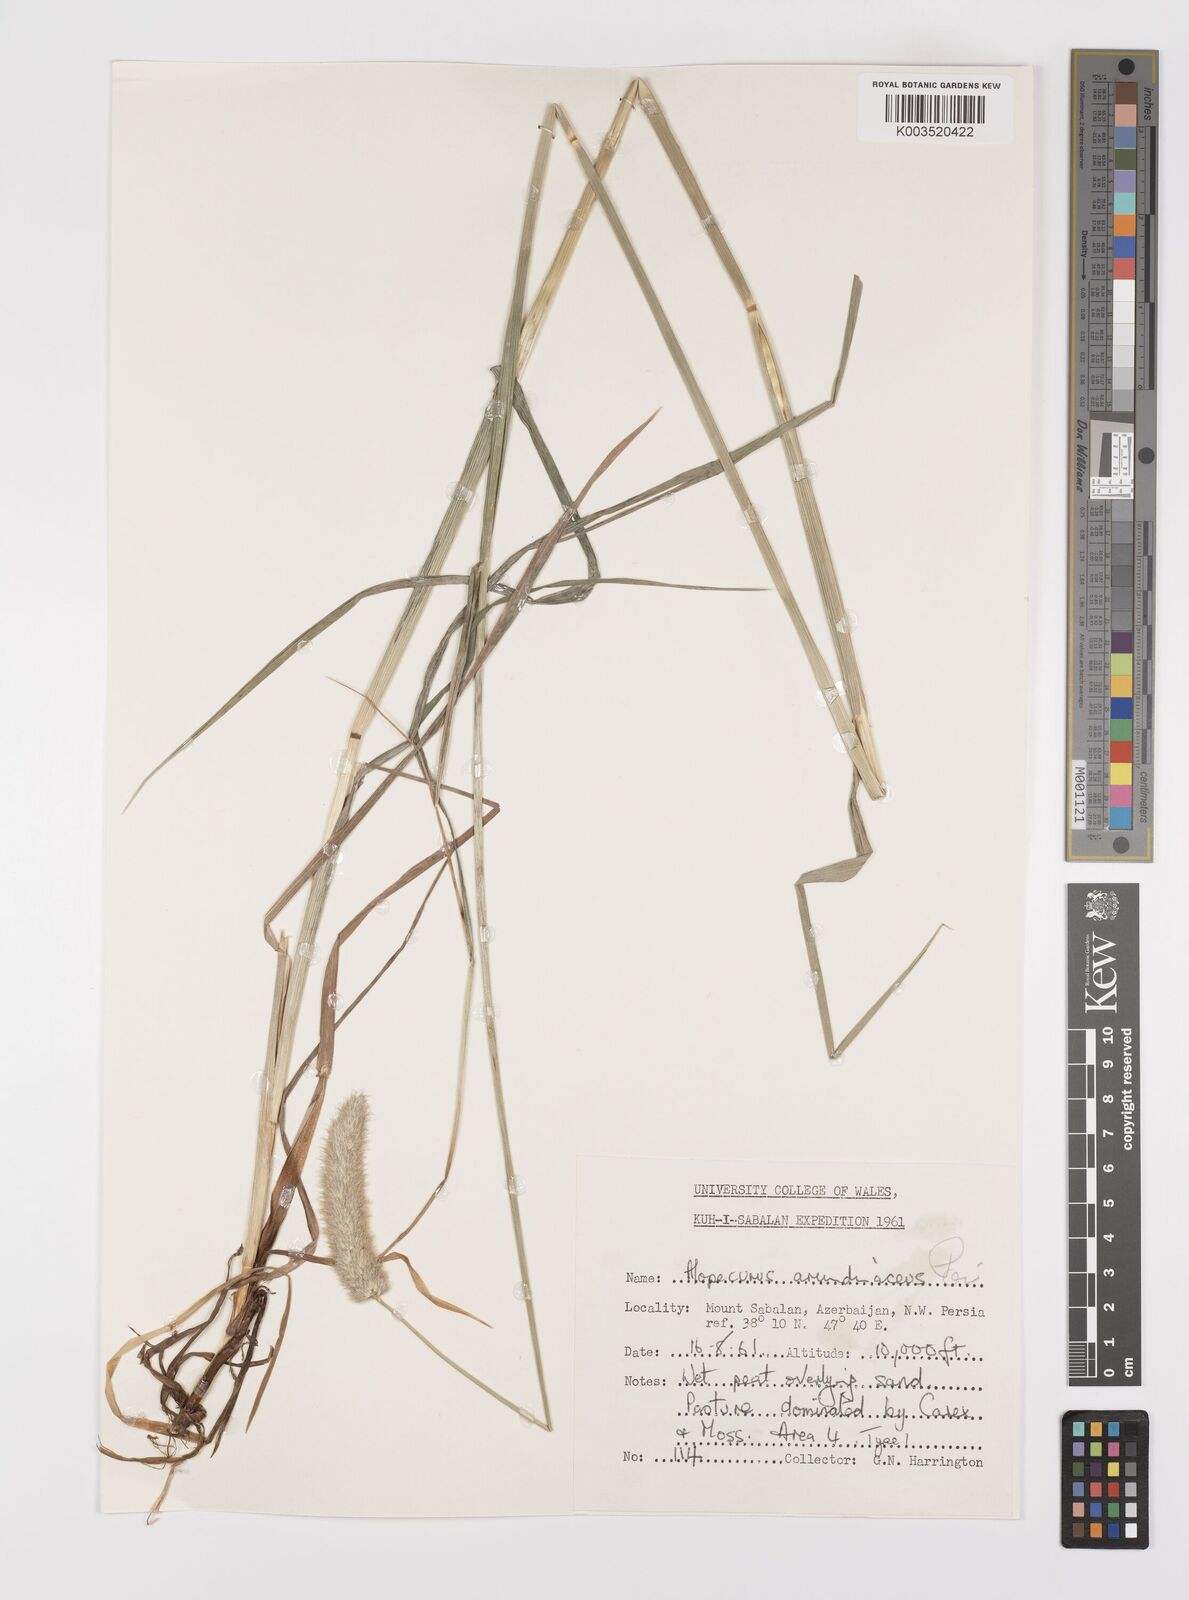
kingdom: Plantae
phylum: Tracheophyta
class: Liliopsida
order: Poales
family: Poaceae
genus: Alopecurus
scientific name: Alopecurus arundinaceus
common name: Creeping meadow foxtail
